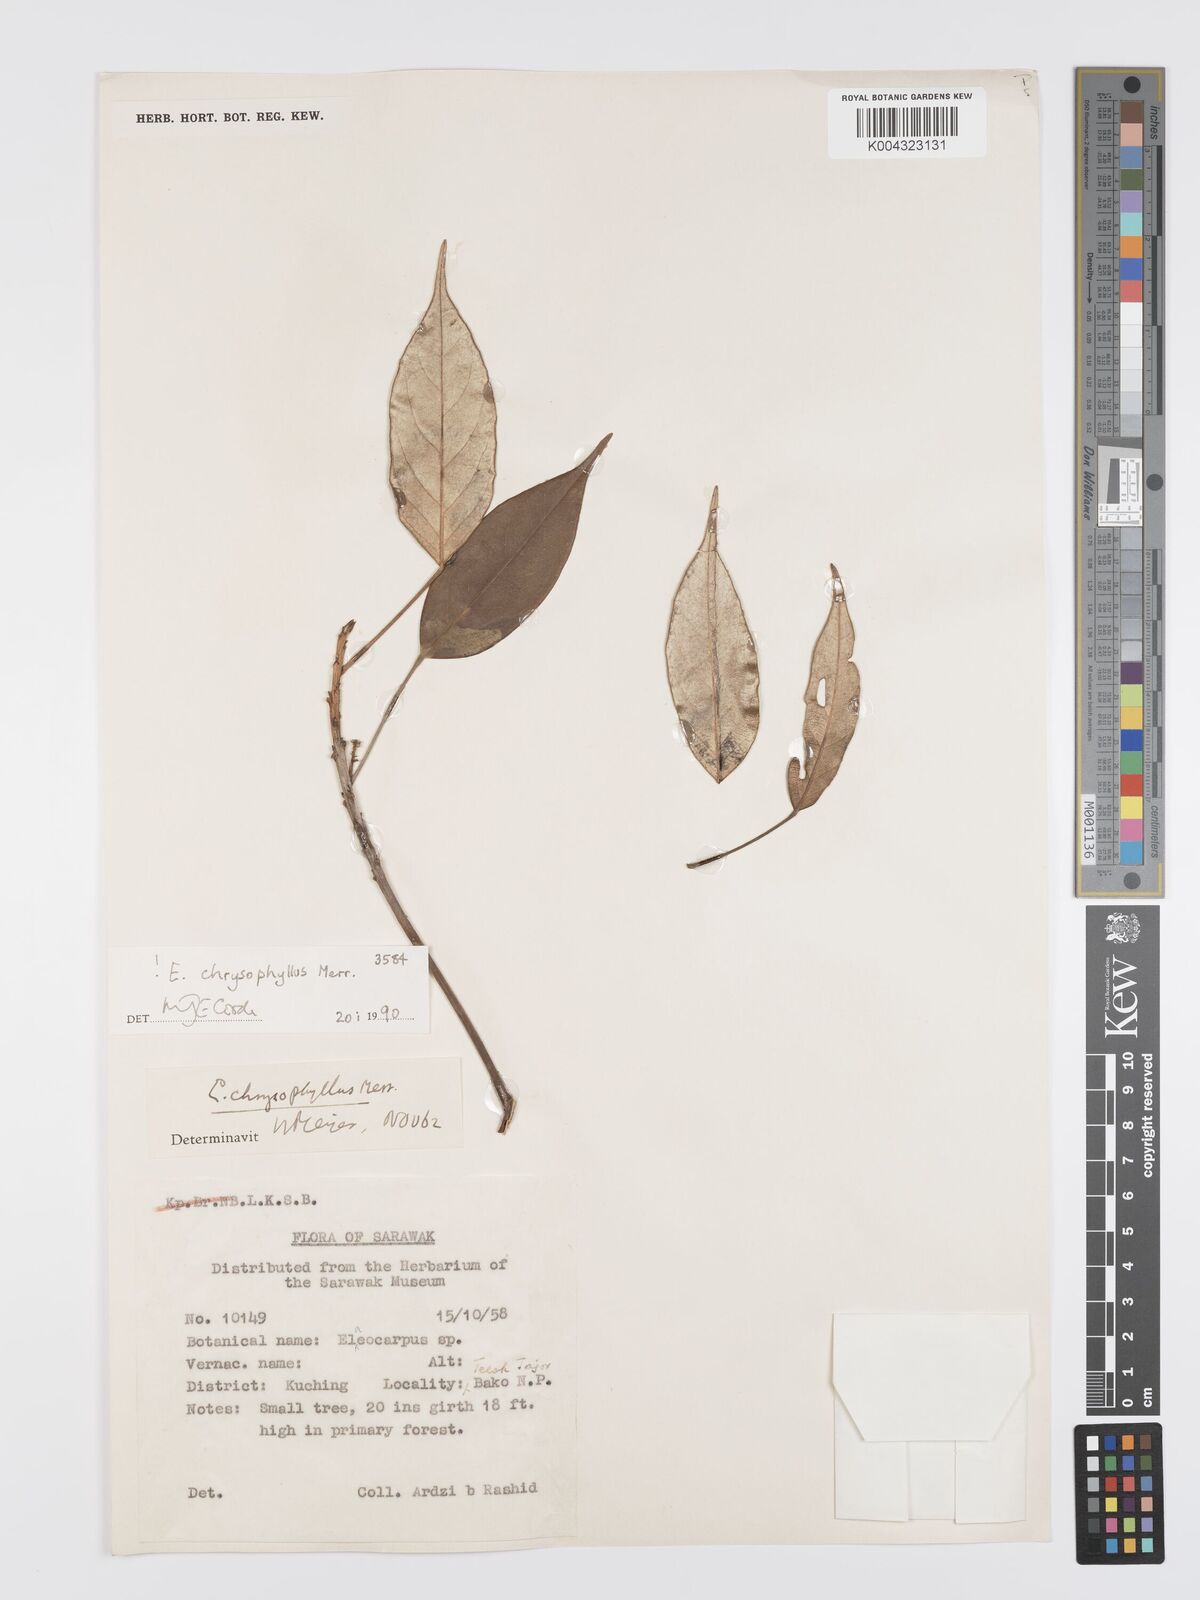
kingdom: Plantae
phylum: Tracheophyta
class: Magnoliopsida
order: Oxalidales
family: Elaeocarpaceae
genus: Elaeocarpus
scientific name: Elaeocarpus chrysophyllus
